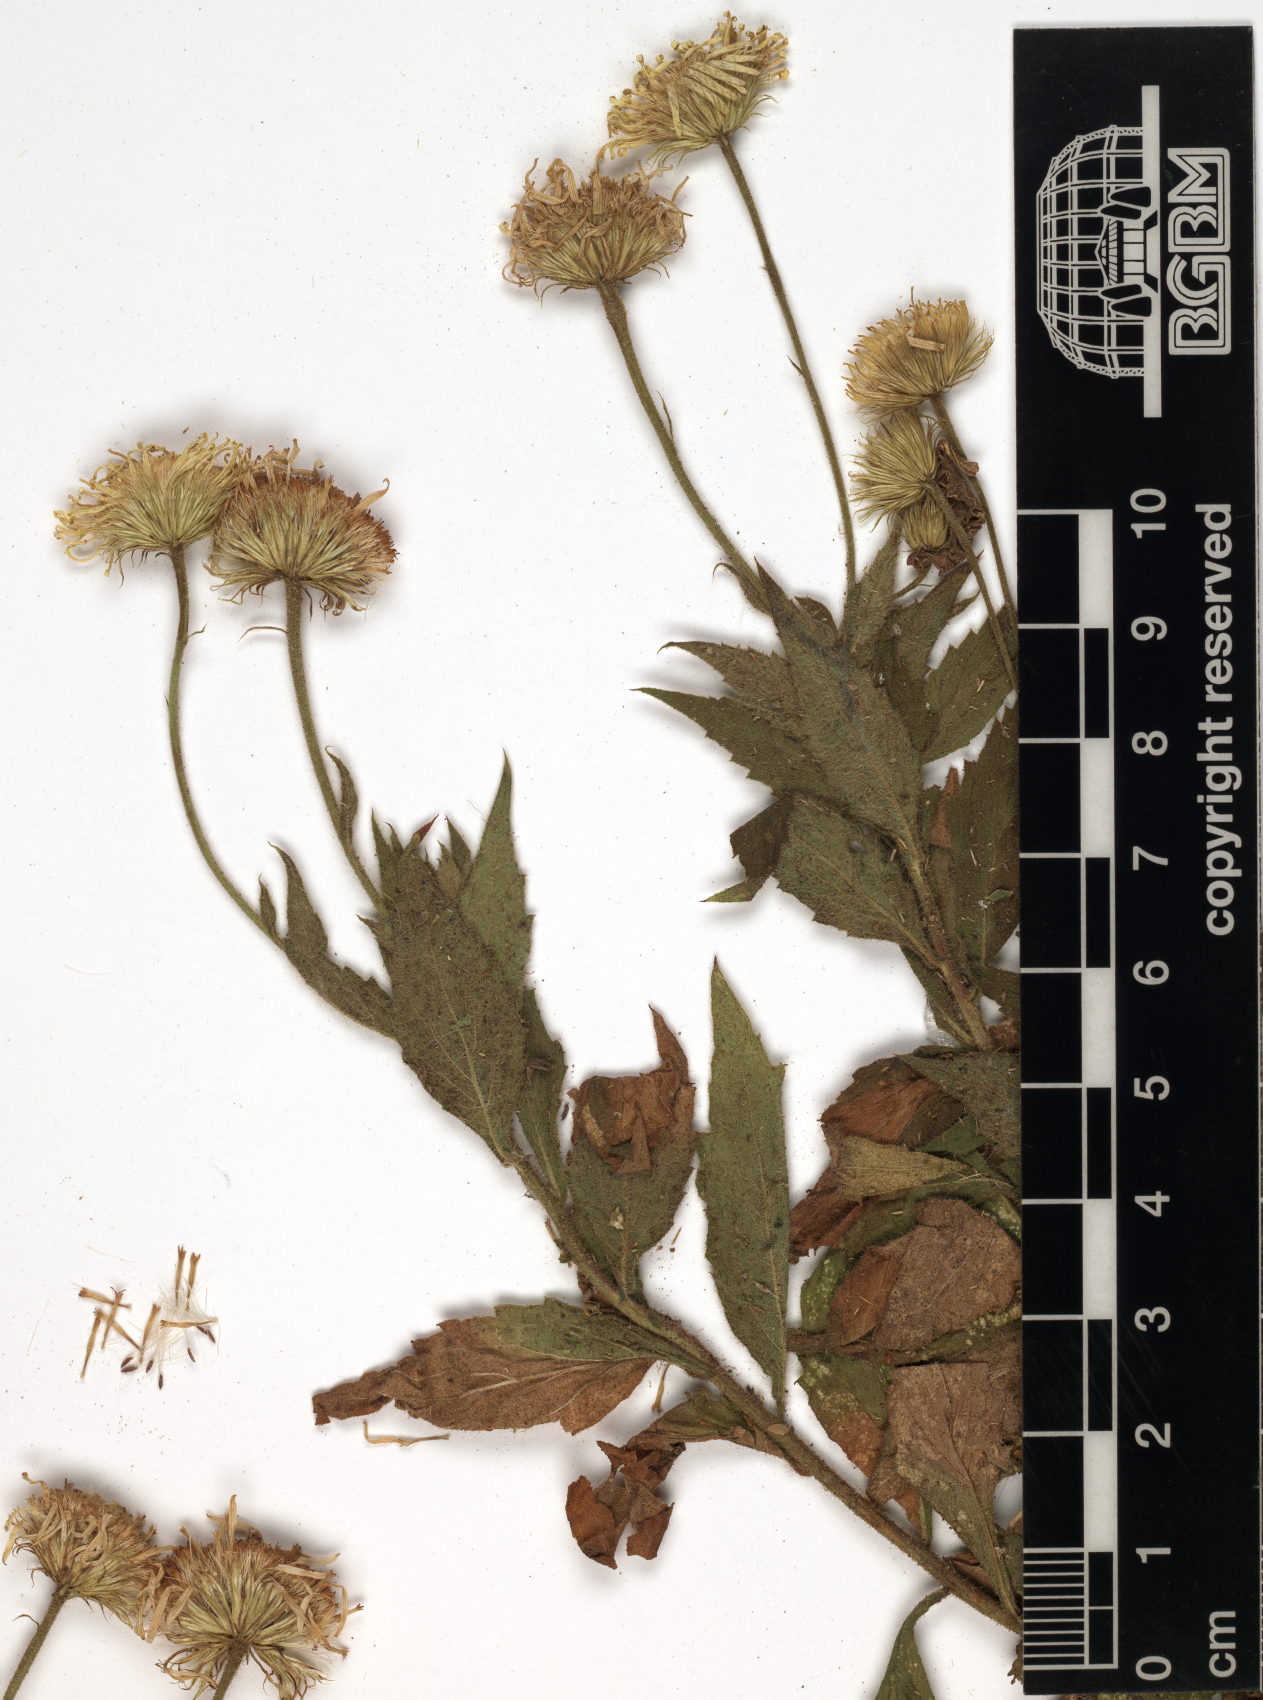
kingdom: Plantae
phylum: Tracheophyta
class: Magnoliopsida
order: Asterales
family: Asteraceae
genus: Pulicaria
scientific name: Pulicaria petiolaris
